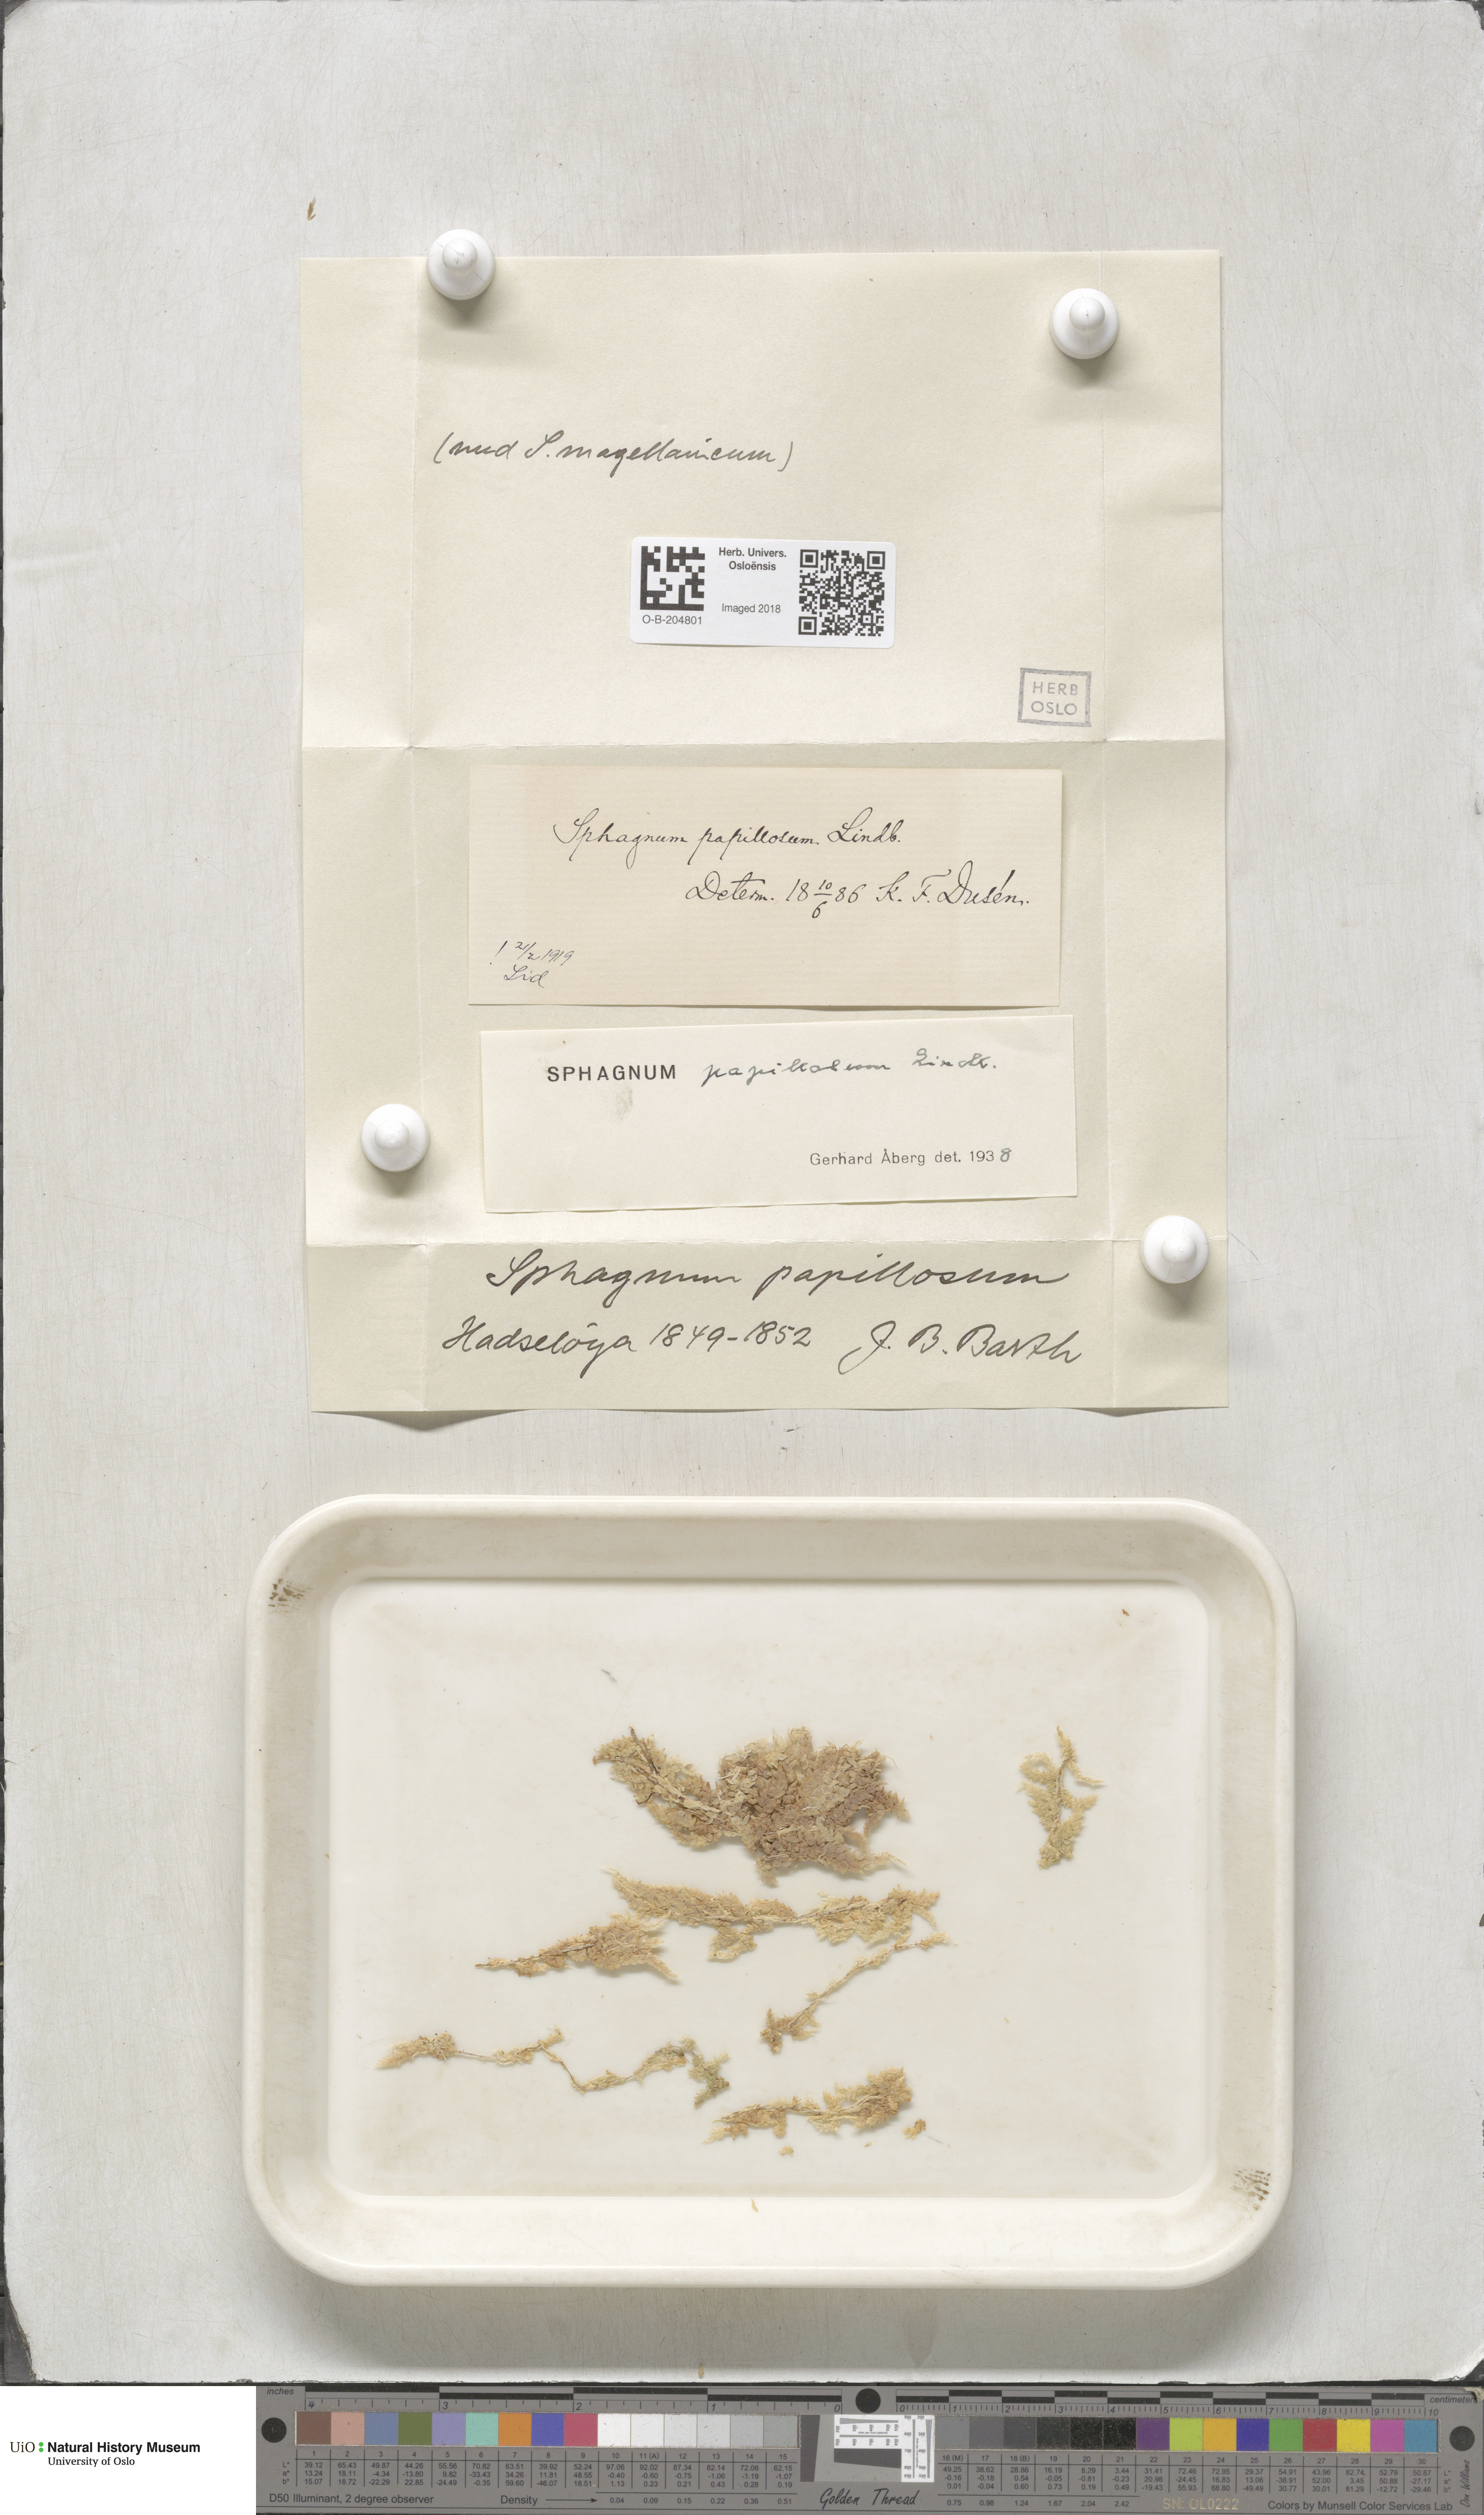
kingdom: Plantae
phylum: Bryophyta
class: Sphagnopsida
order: Sphagnales
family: Sphagnaceae
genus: Sphagnum
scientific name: Sphagnum papillosum
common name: Papillose peat moss
